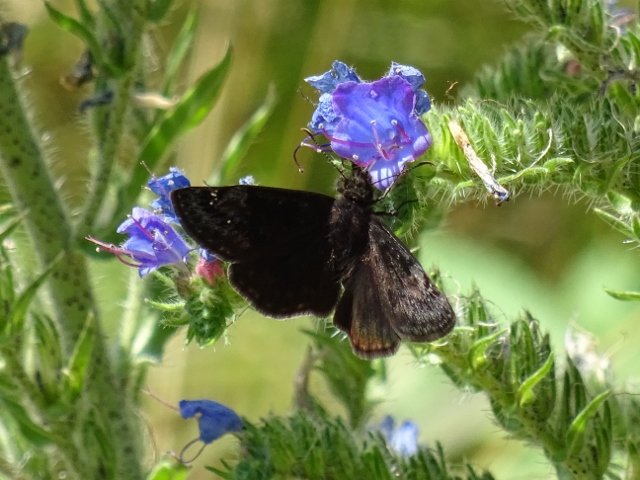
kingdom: Animalia
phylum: Arthropoda
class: Insecta
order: Lepidoptera
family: Hesperiidae
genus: Gesta
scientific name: Gesta
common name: Wild Indigo Duskywing
